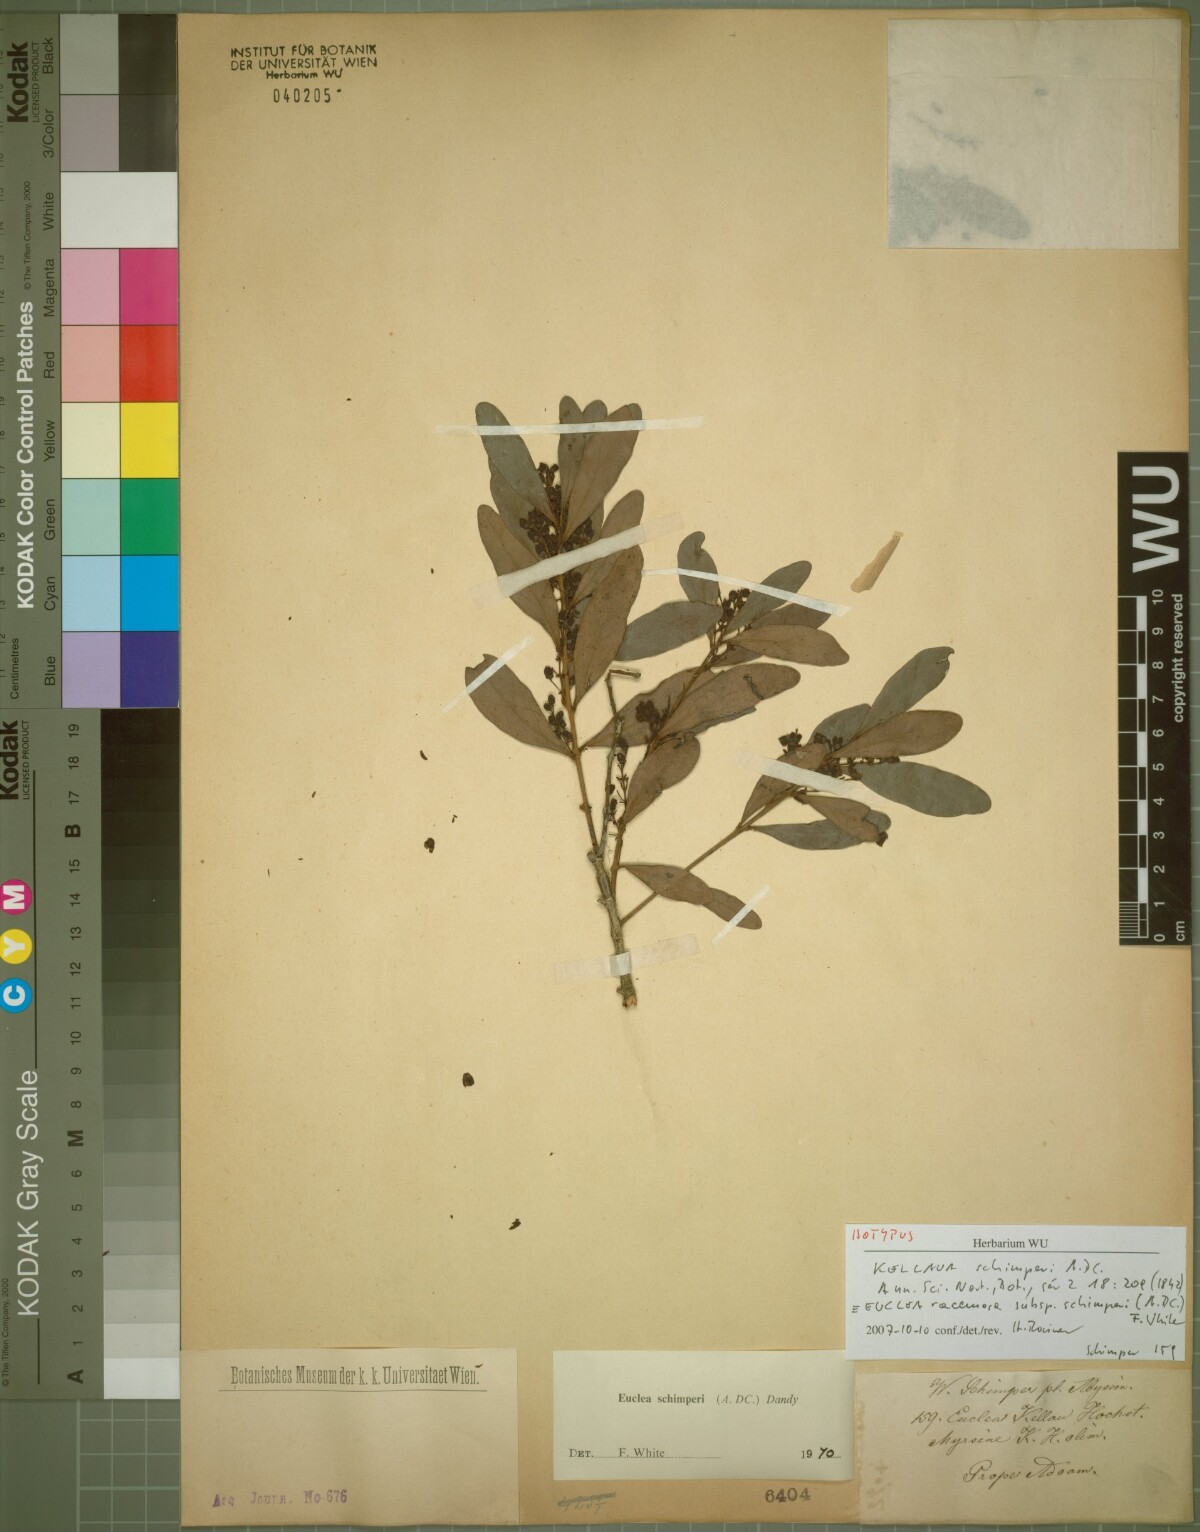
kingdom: Plantae
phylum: Tracheophyta
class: Magnoliopsida
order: Ericales
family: Ebenaceae
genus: Euclea
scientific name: Euclea racemosa
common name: Dune guarri
